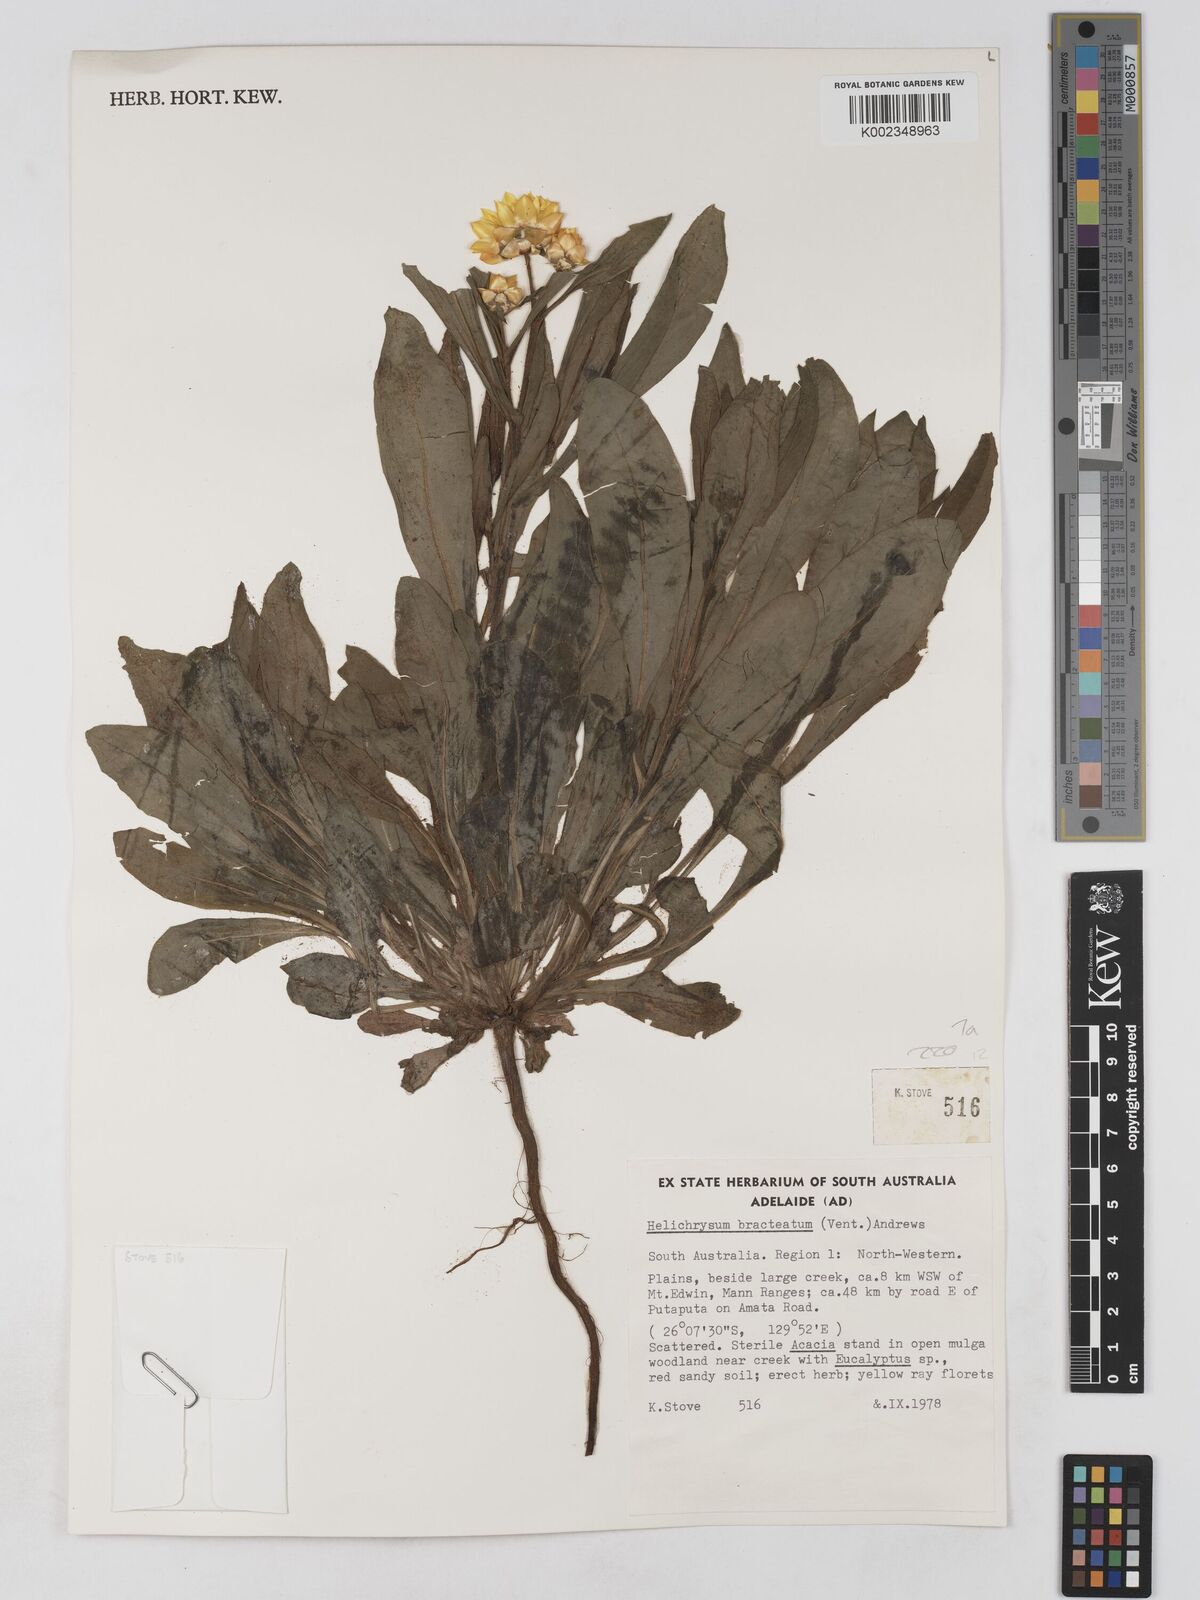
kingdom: Plantae
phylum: Tracheophyta
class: Magnoliopsida
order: Asterales
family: Asteraceae
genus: Xerochrysum
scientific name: Xerochrysum bracteatum
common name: Bracted strawflower
